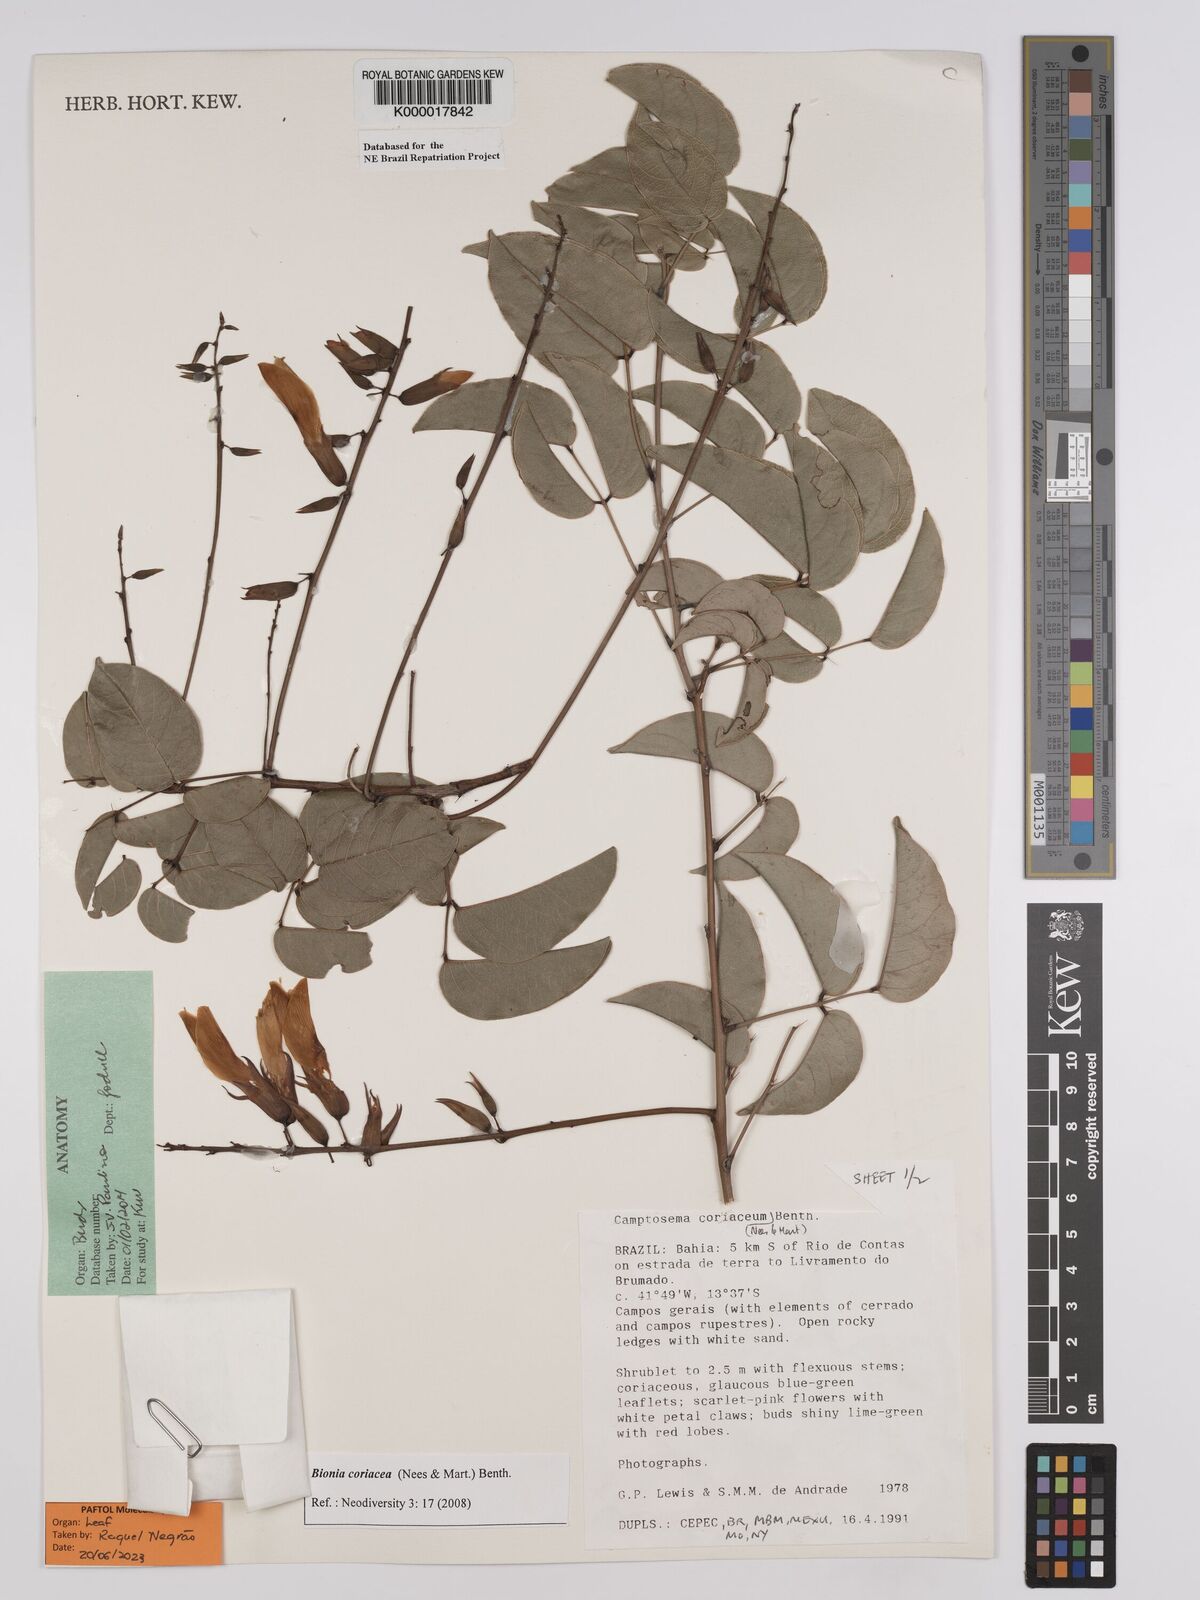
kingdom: Plantae
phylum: Tracheophyta
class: Magnoliopsida
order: Fabales
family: Fabaceae
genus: Camptosema
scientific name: Camptosema coriaceum
